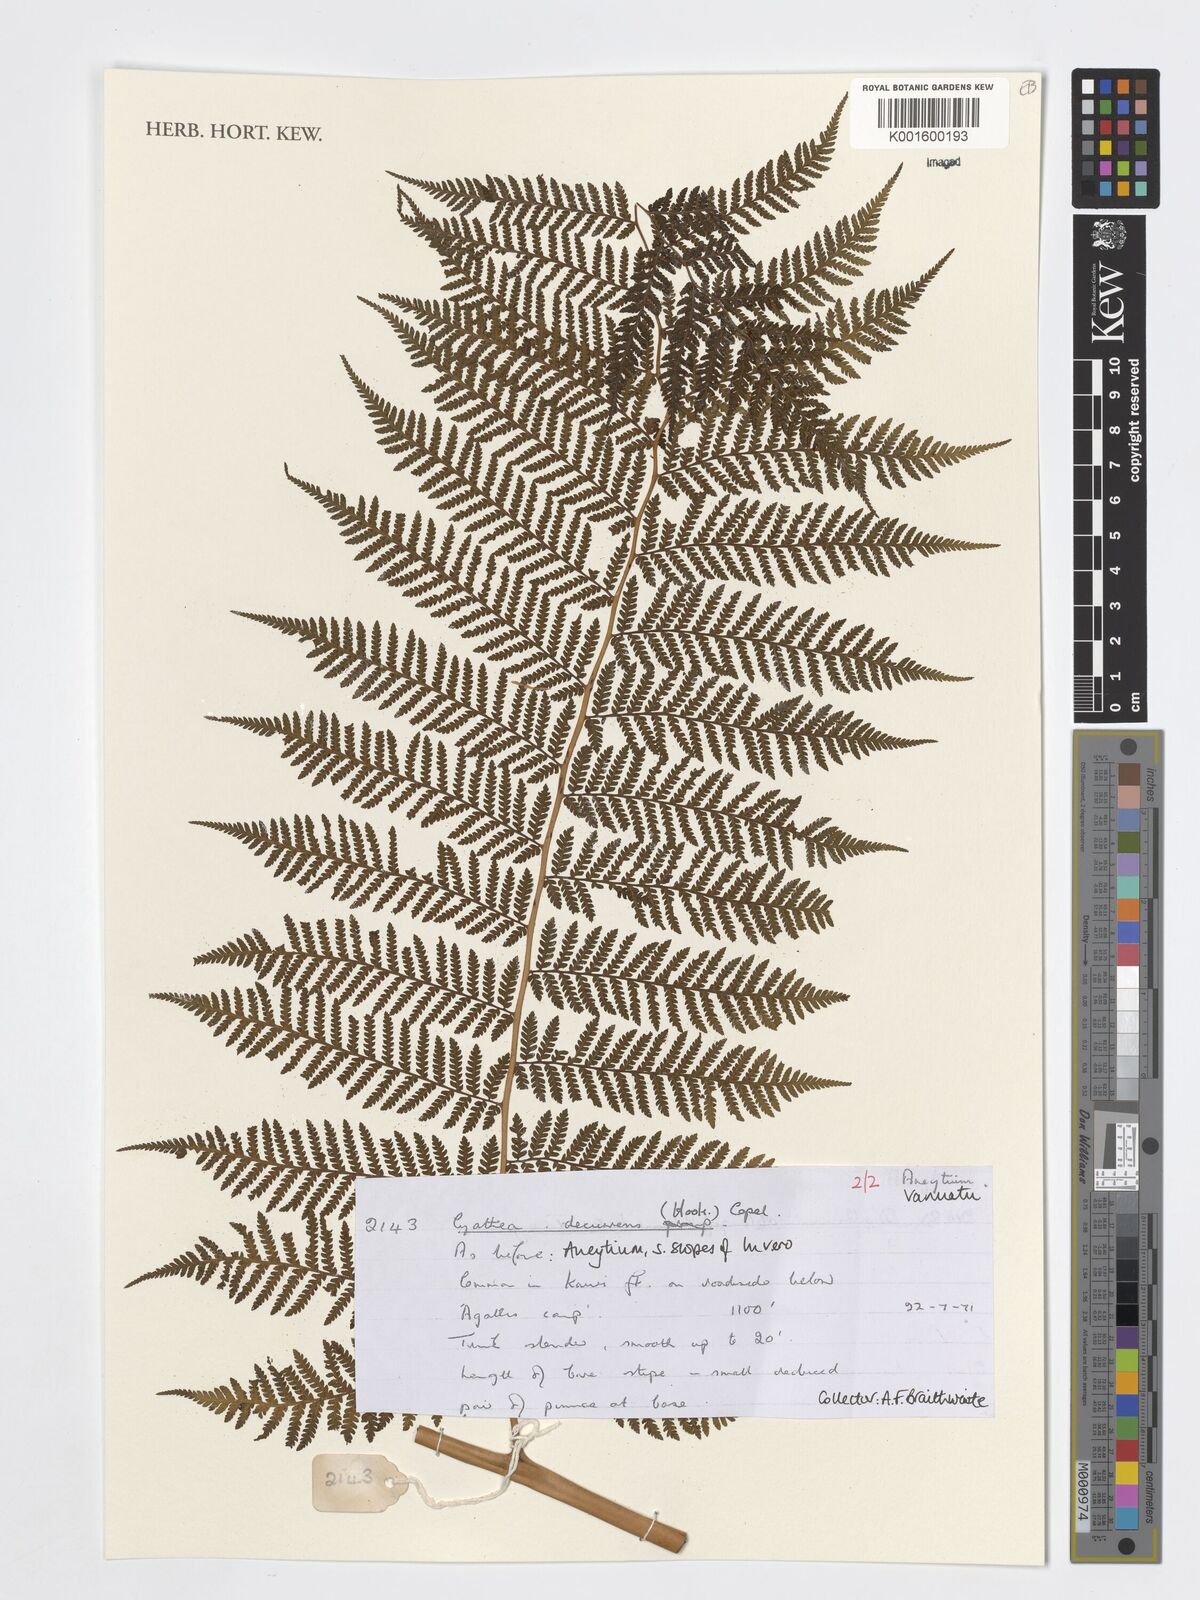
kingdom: Plantae
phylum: Tracheophyta
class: Polypodiopsida
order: Cyatheales
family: Cyatheaceae
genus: Cyathea
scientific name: Cyathea decurrens
